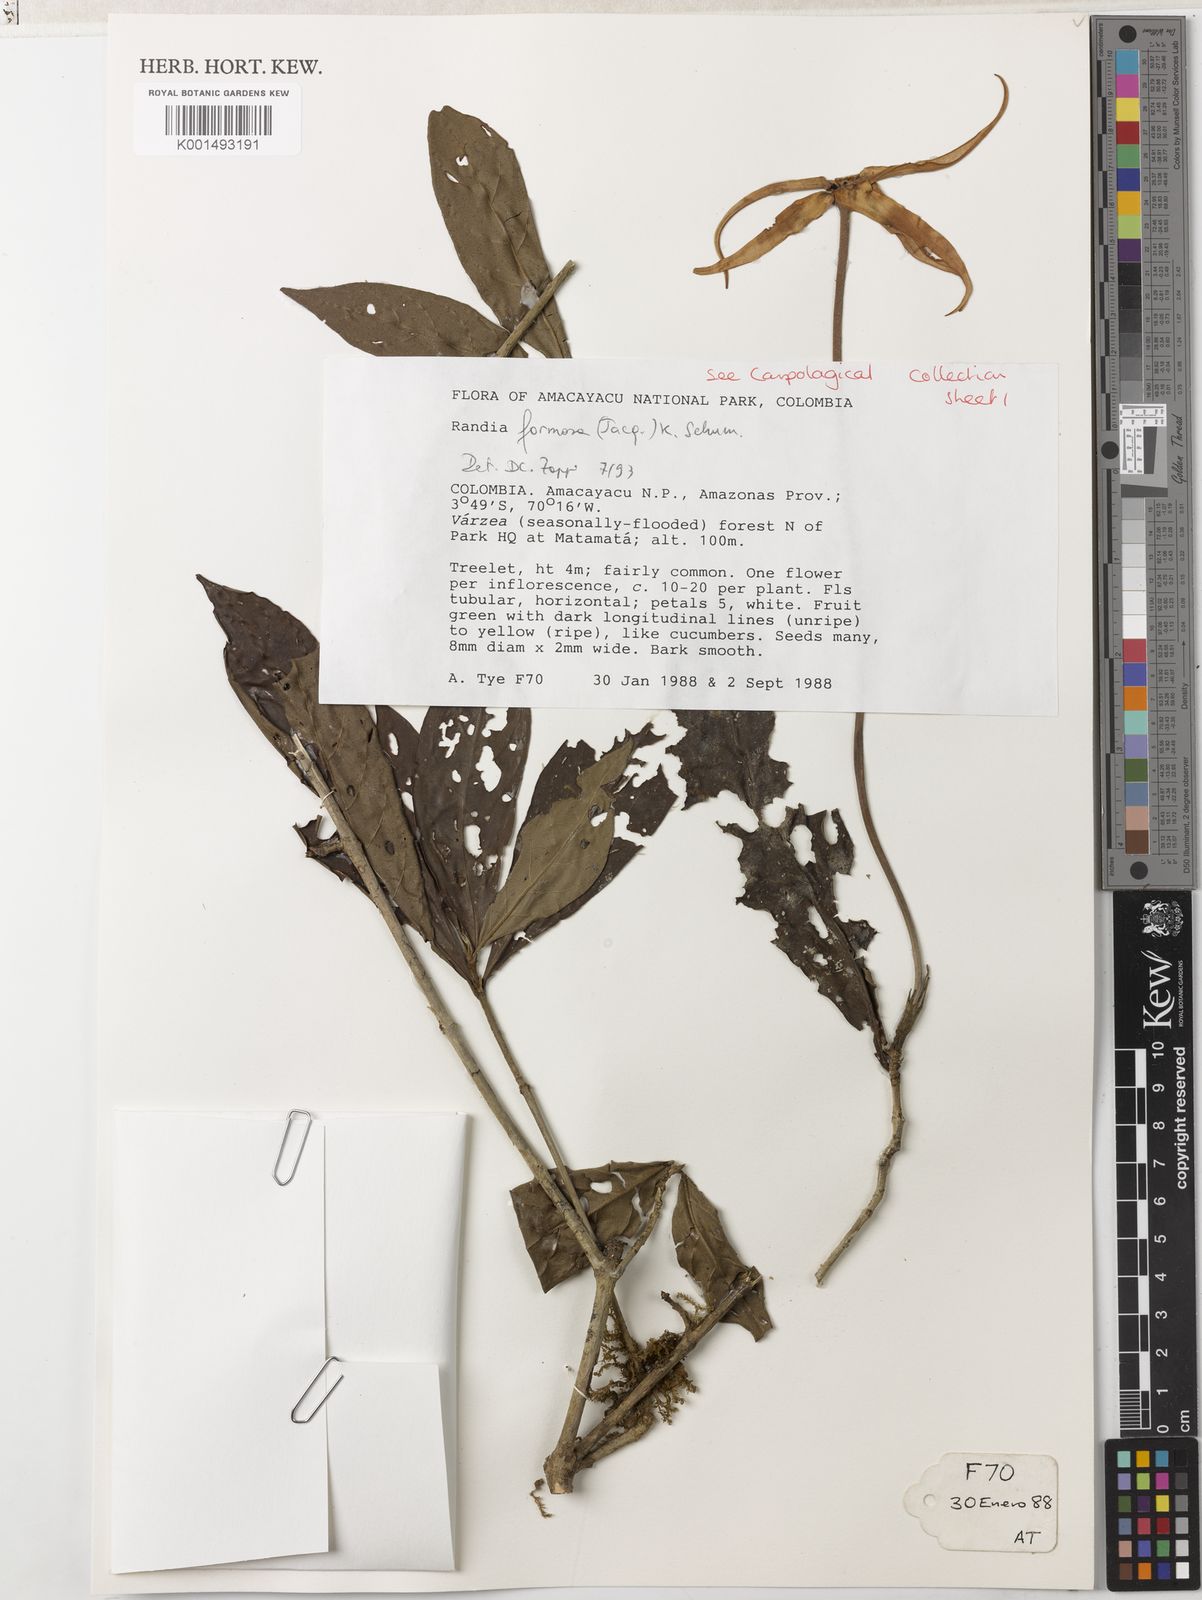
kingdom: Plantae
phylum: Tracheophyta
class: Magnoliopsida
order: Gentianales
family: Rubiaceae
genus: Rosenbergiodendron
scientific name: Rosenbergiodendron formosum
